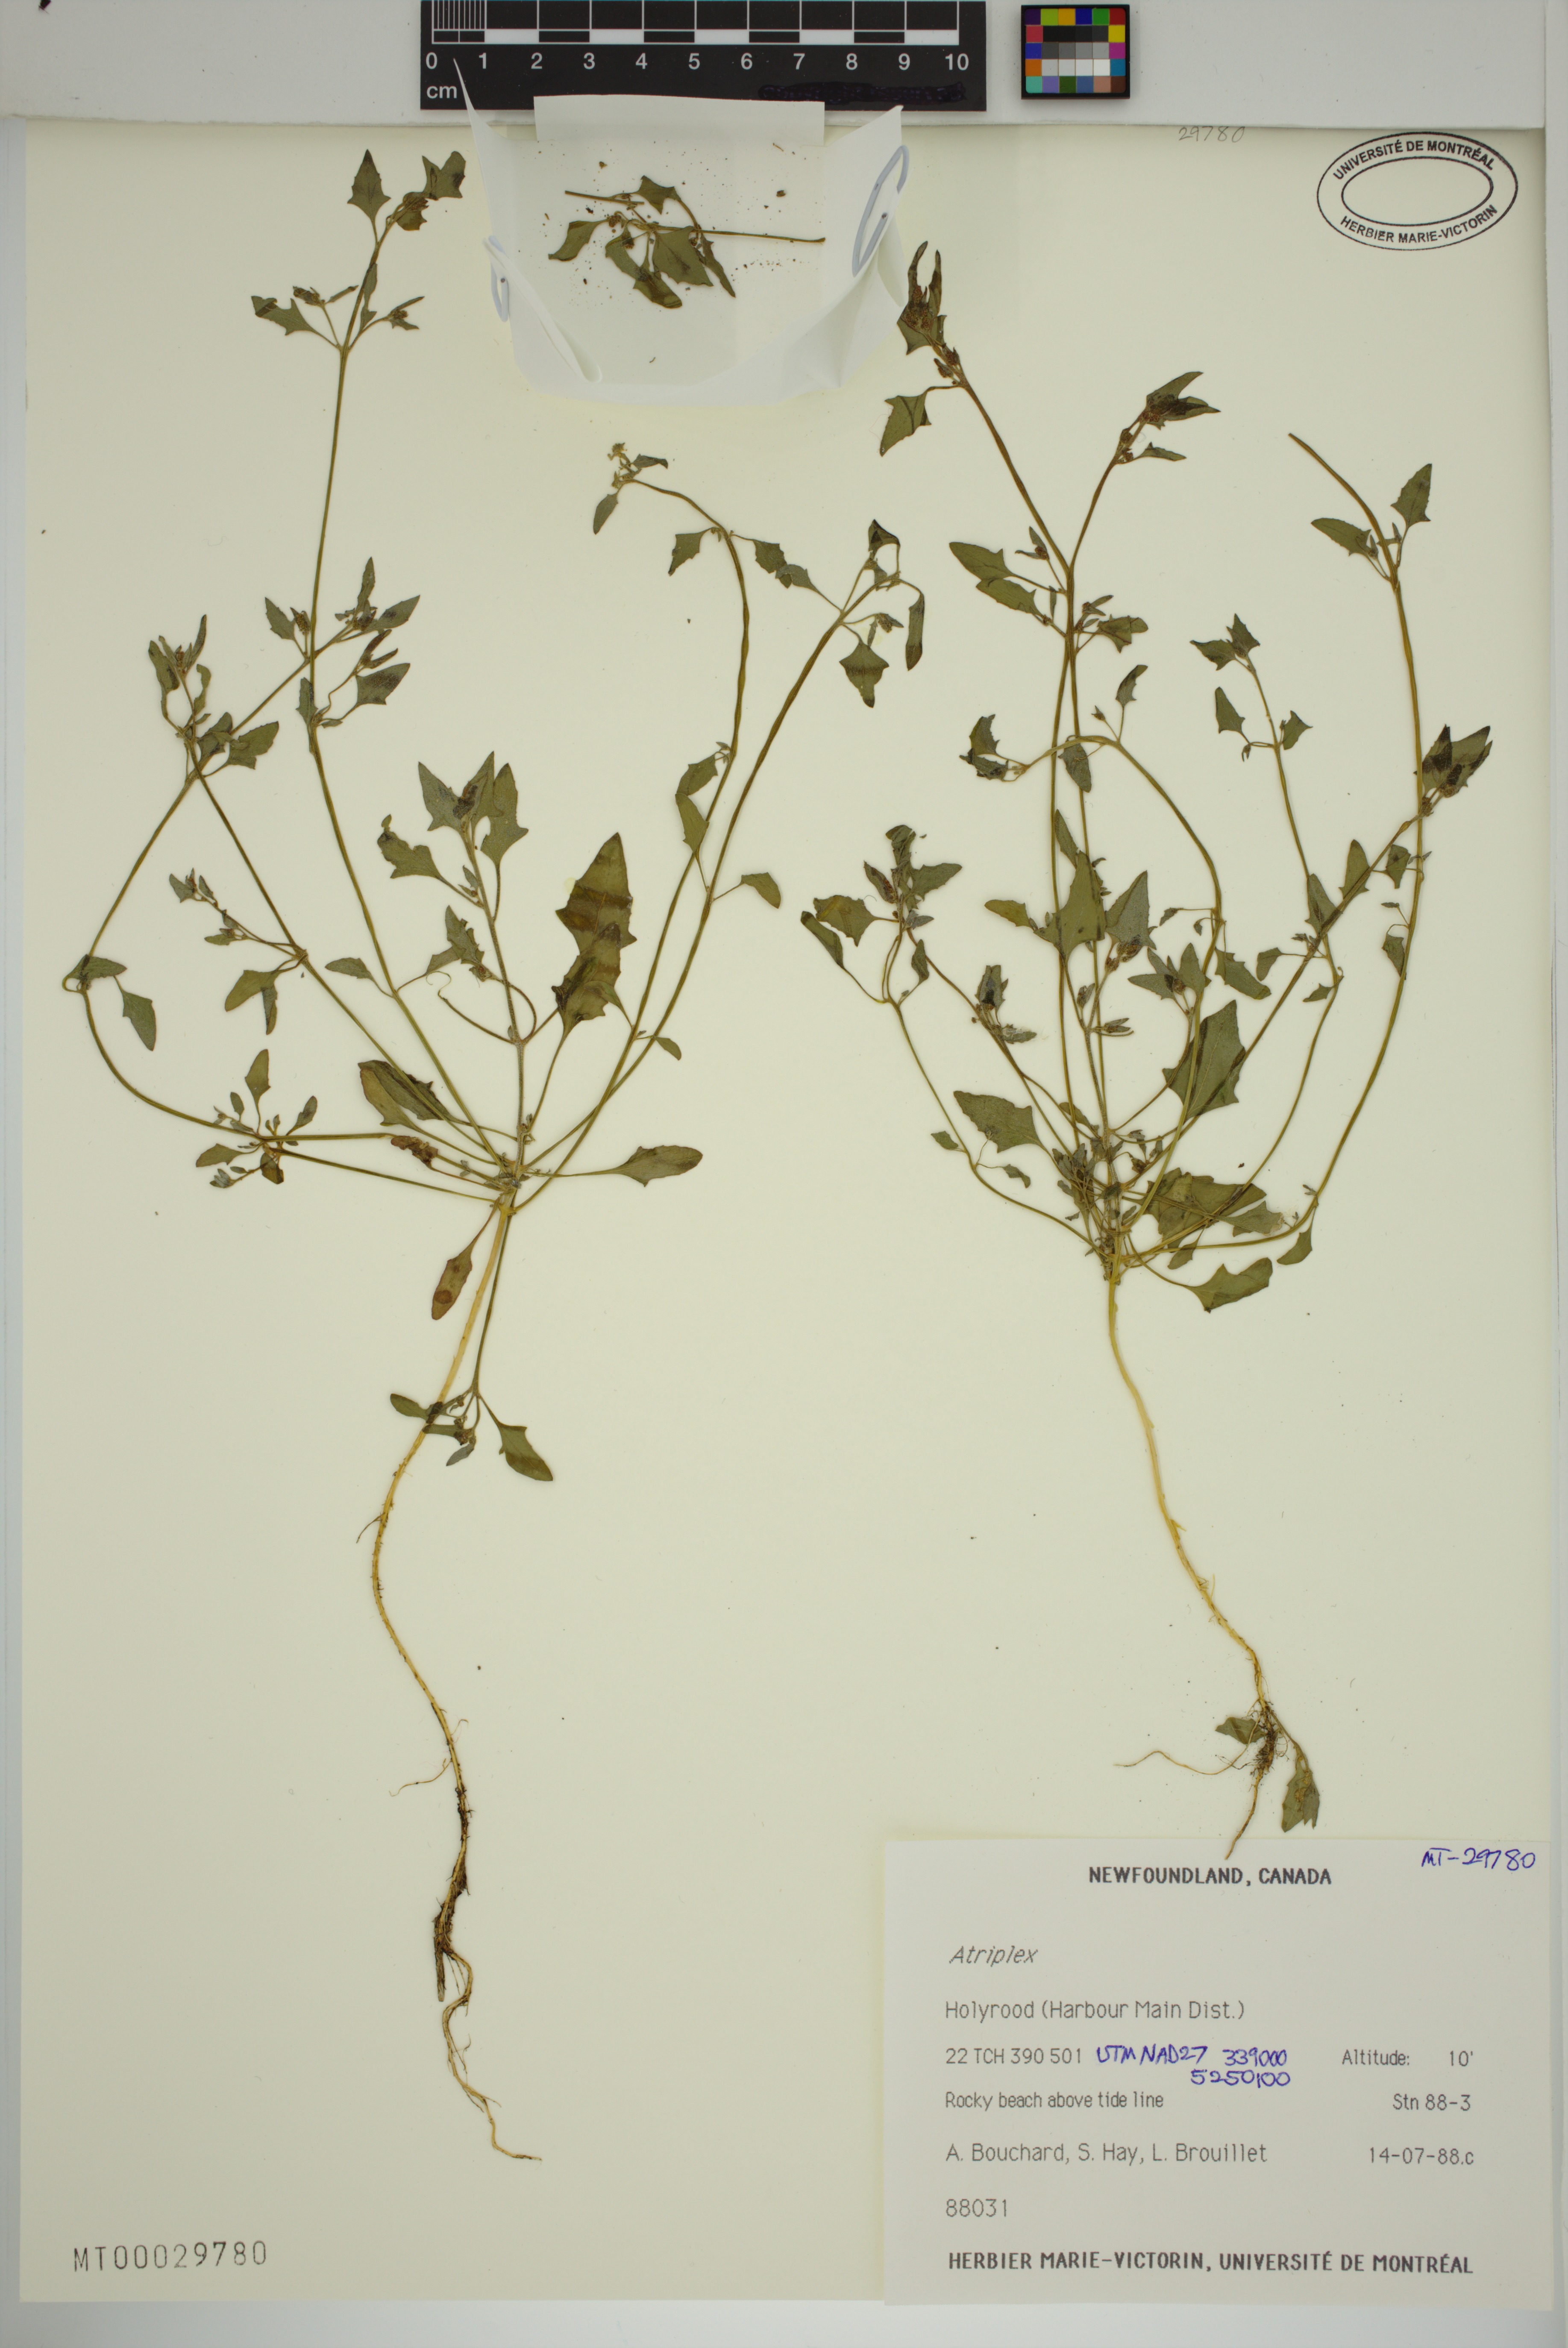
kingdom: Plantae
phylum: Tracheophyta
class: Magnoliopsida
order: Caryophyllales
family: Amaranthaceae
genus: Atriplex
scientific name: Atriplex
